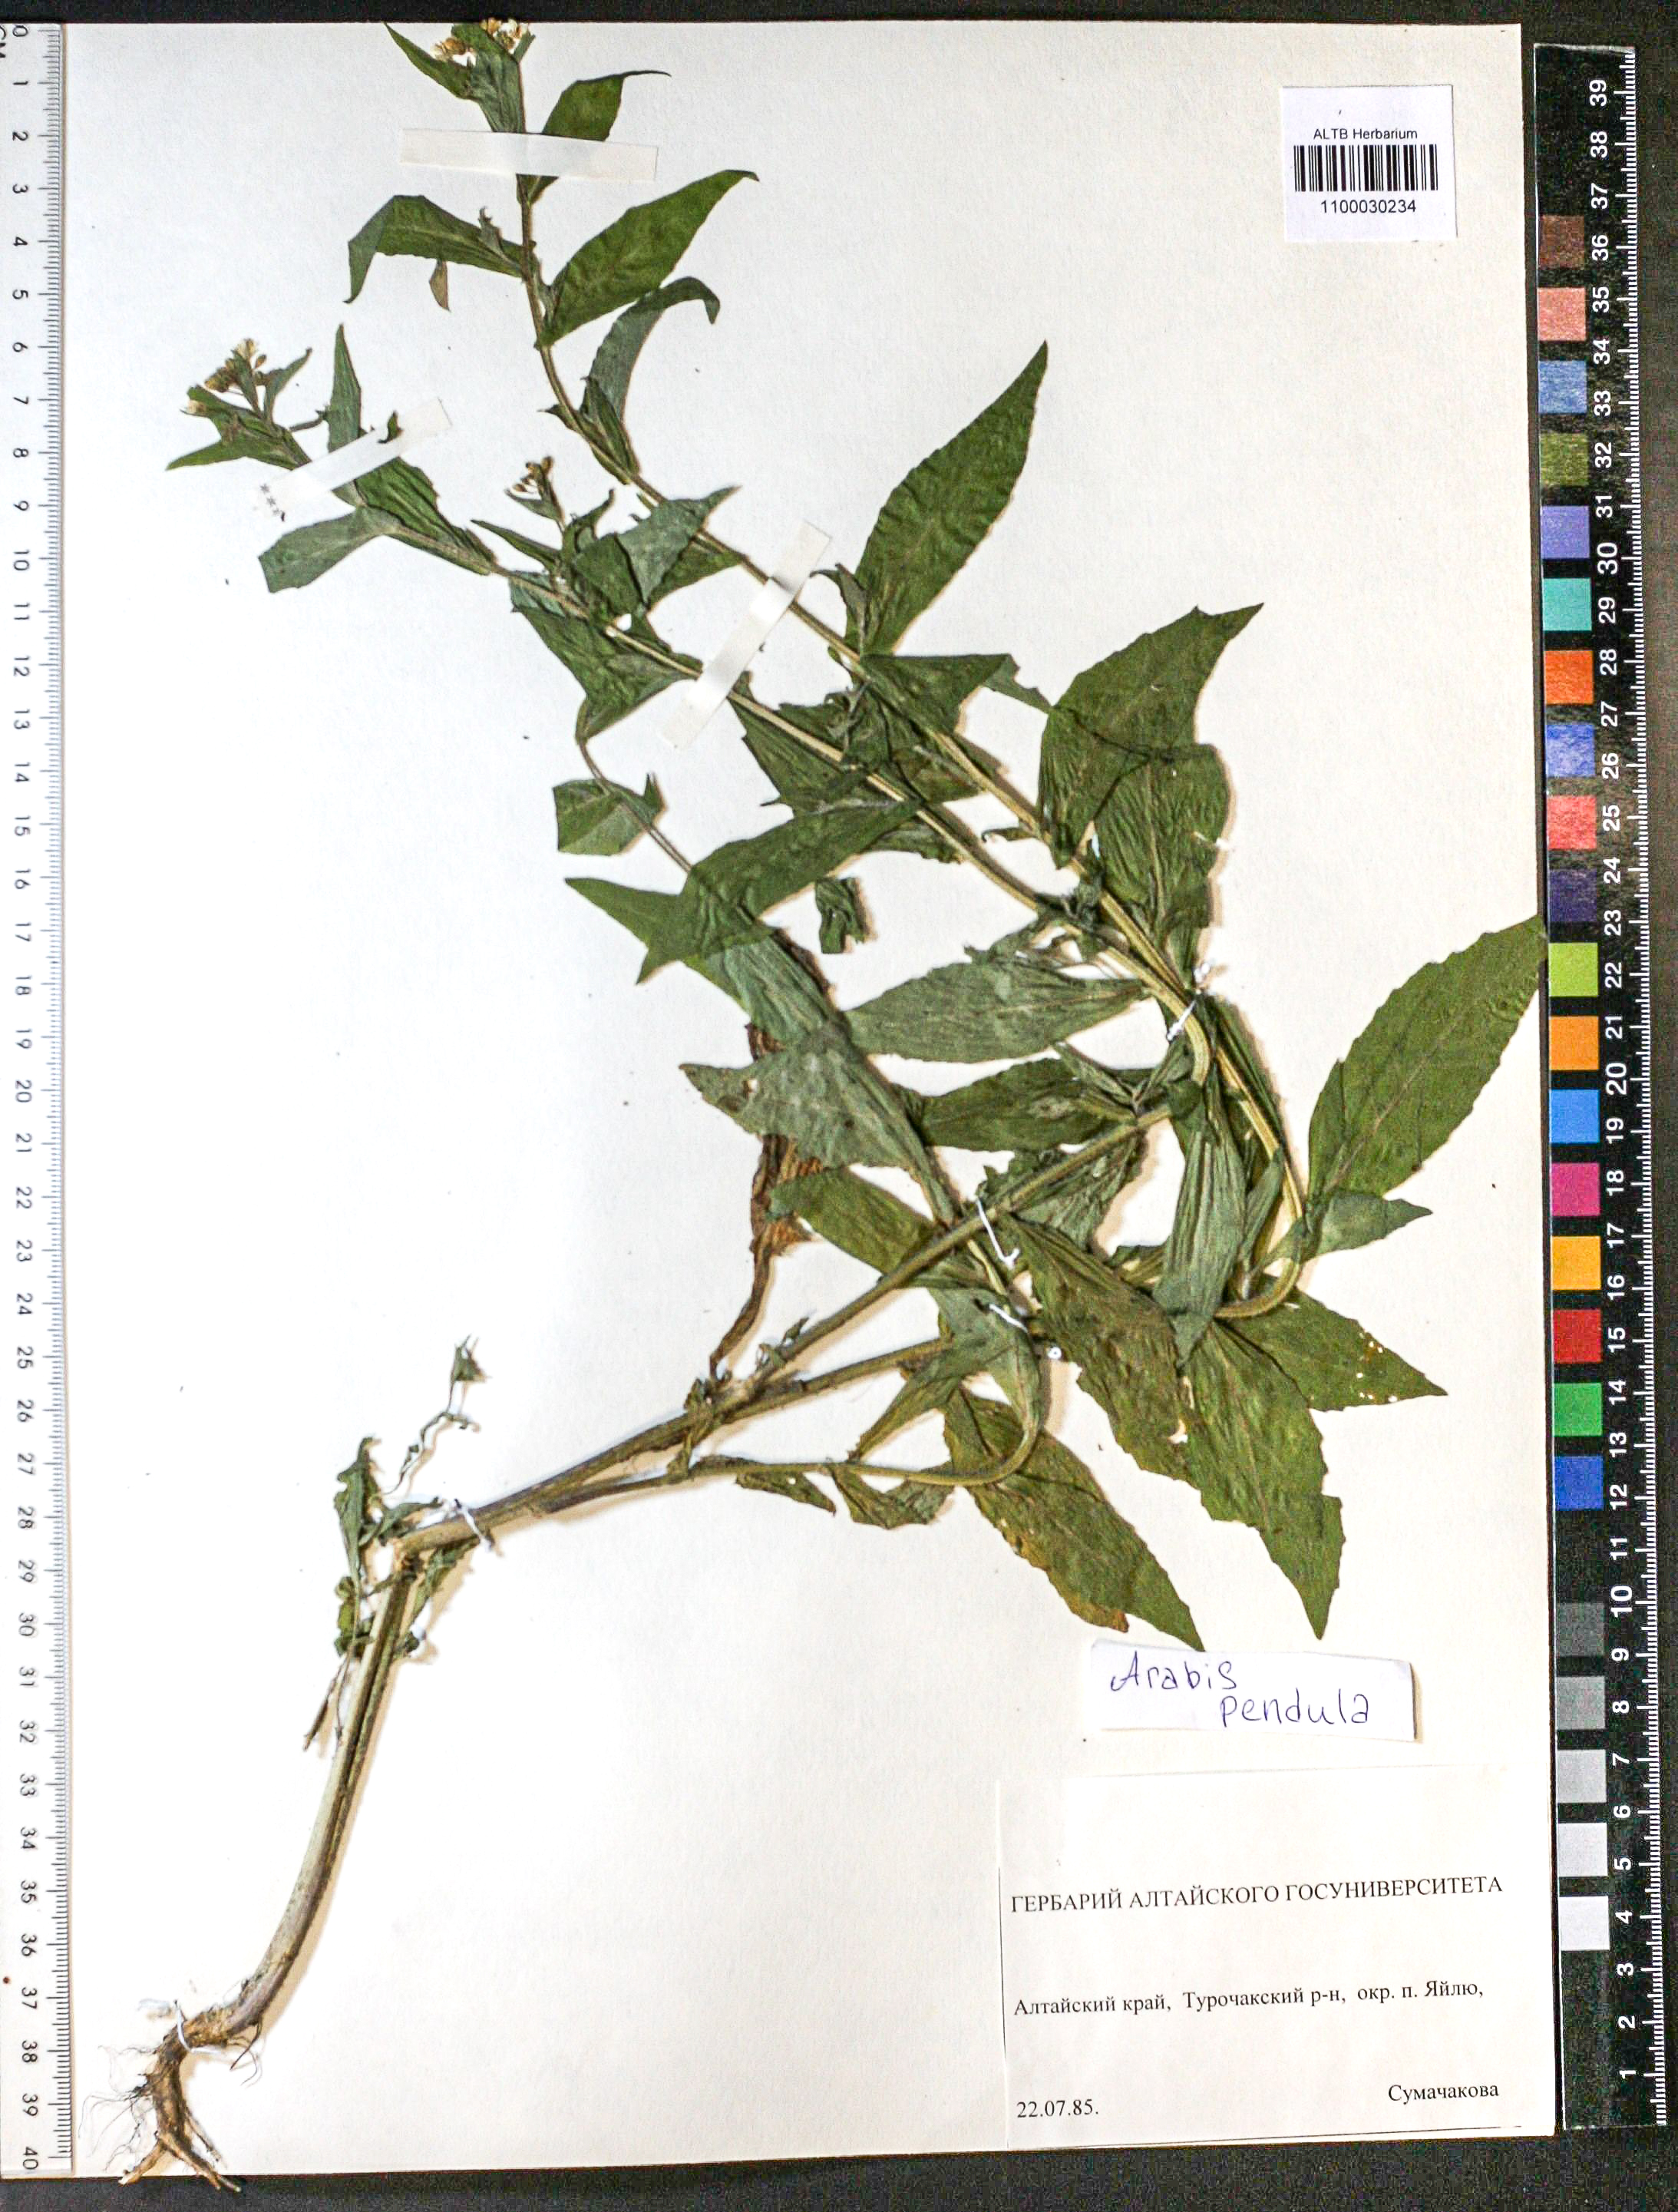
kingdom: Plantae
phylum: Tracheophyta
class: Magnoliopsida
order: Brassicales
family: Brassicaceae
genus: Catolobus
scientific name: Catolobus pendulus
